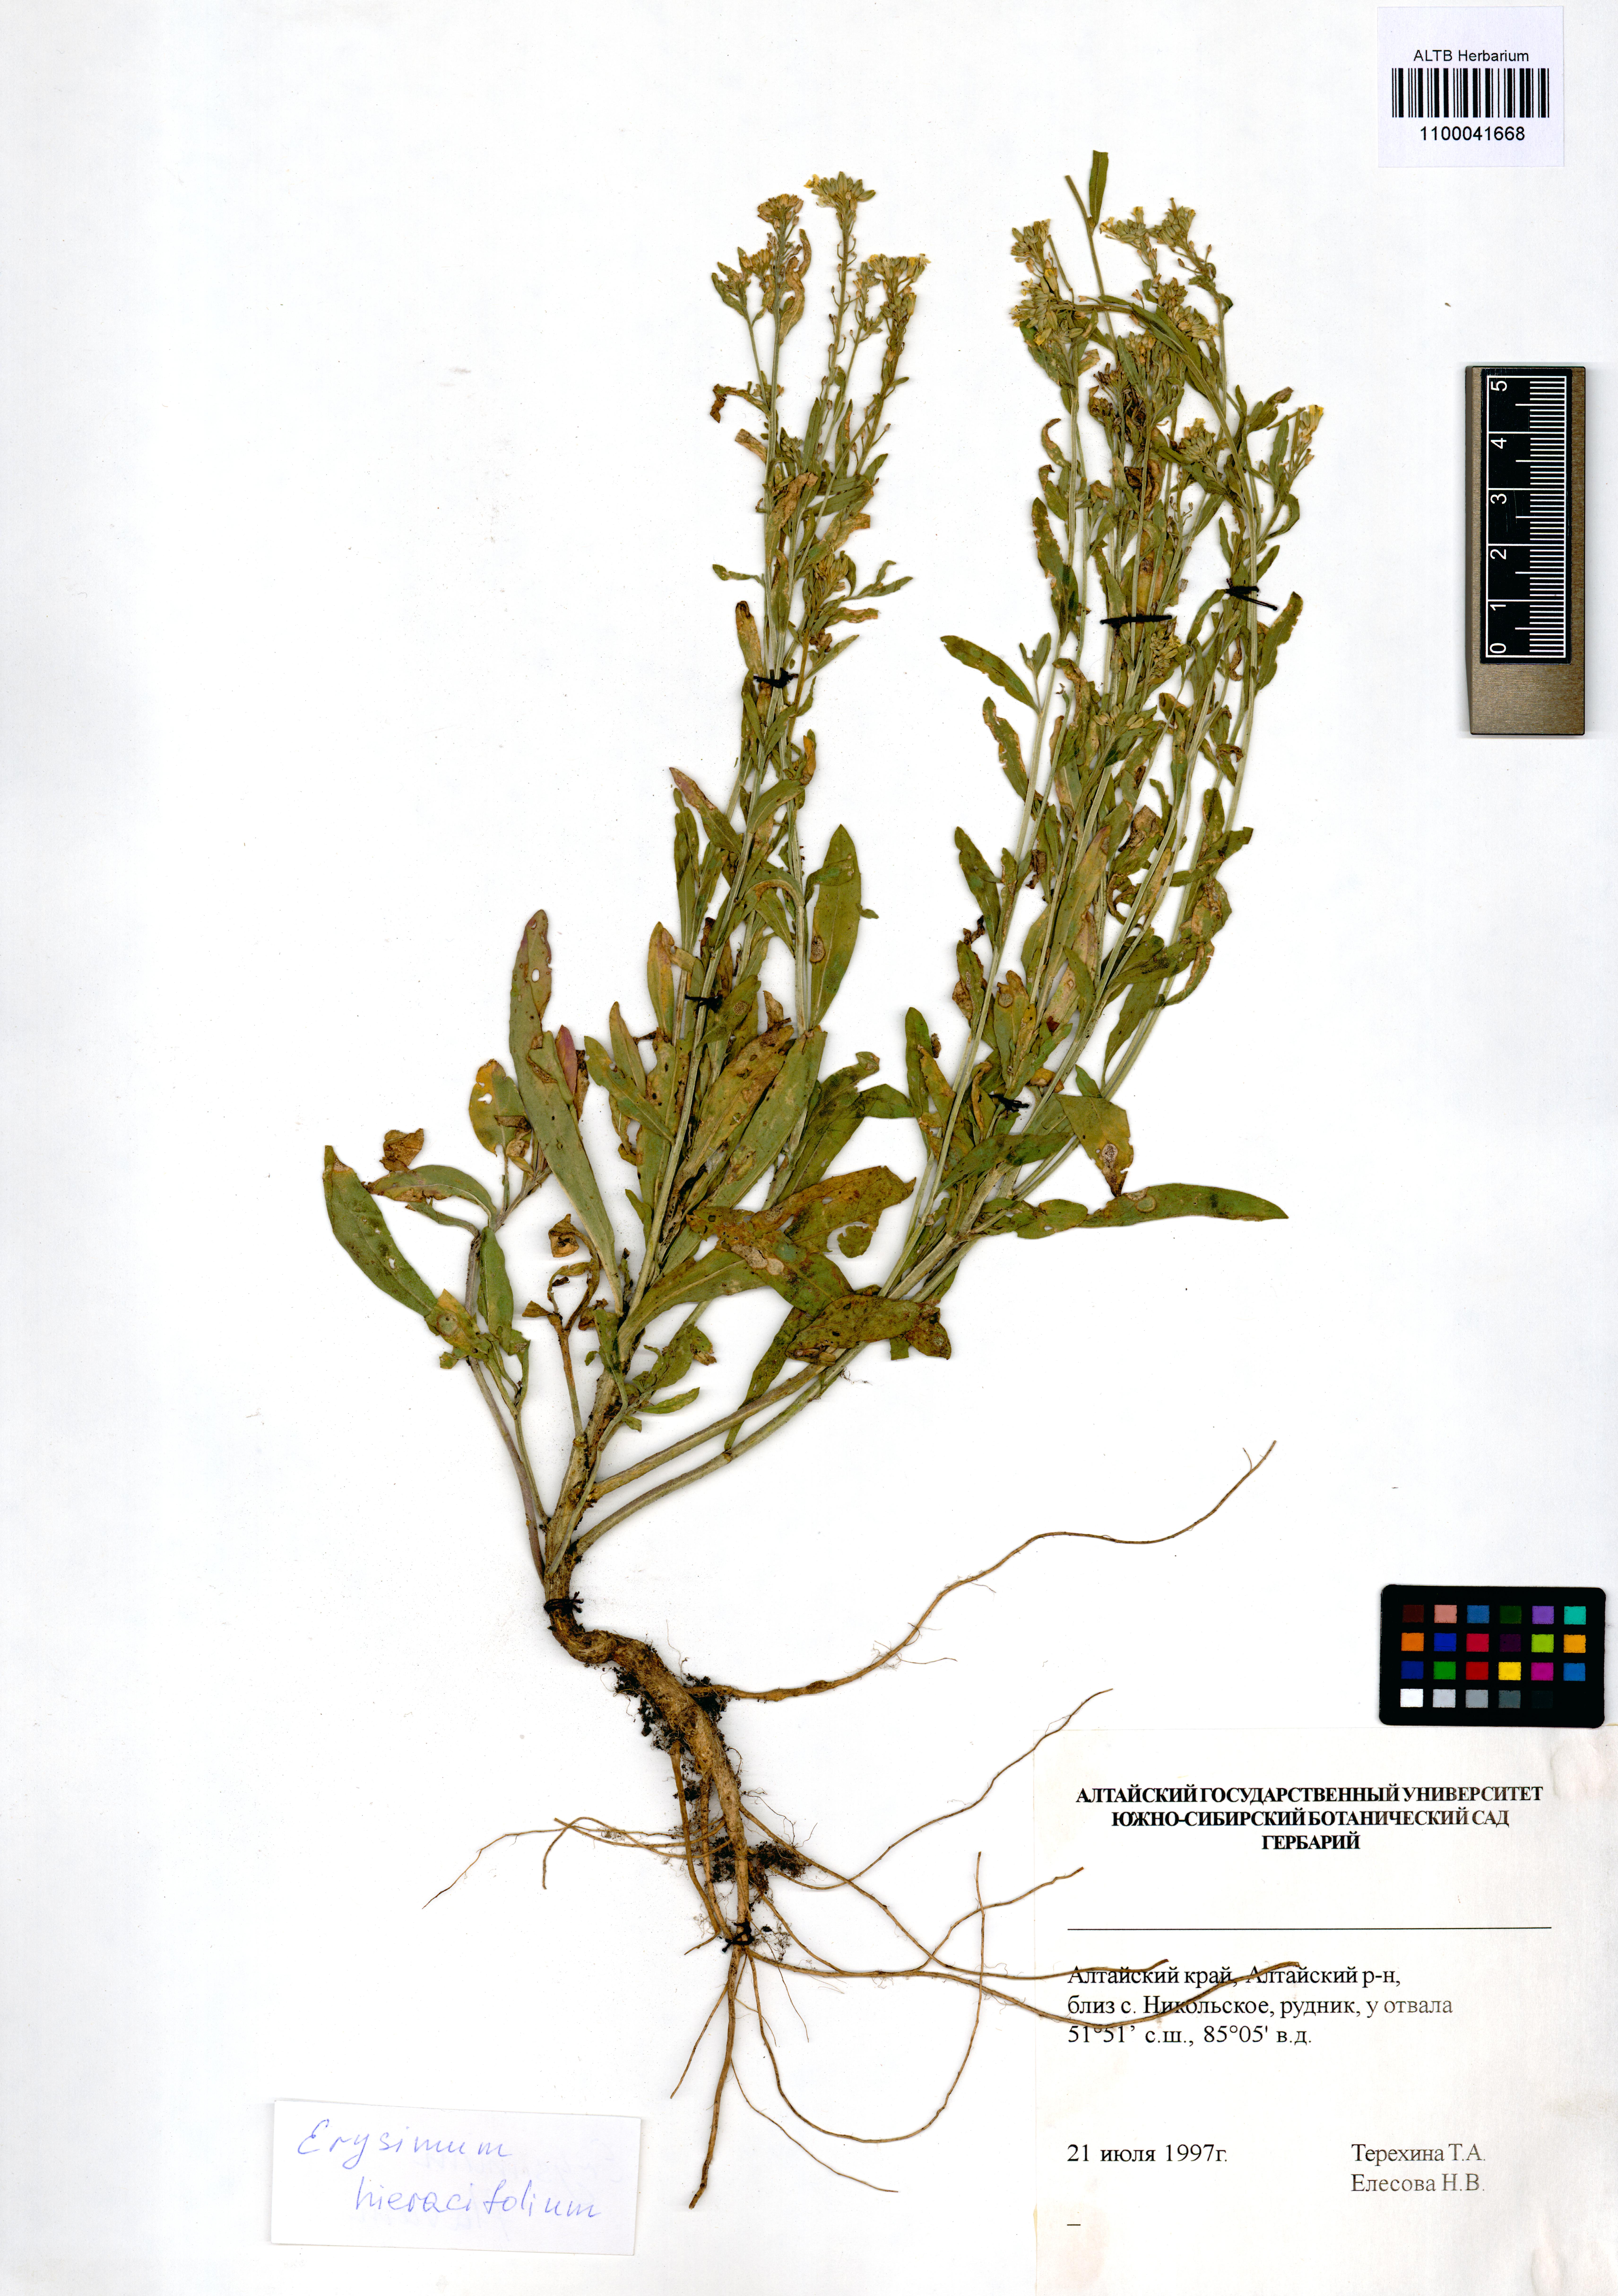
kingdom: Plantae
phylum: Tracheophyta
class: Magnoliopsida
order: Brassicales
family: Brassicaceae
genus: Erysimum
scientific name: Erysimum hieraciifolium
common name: European wallflower
